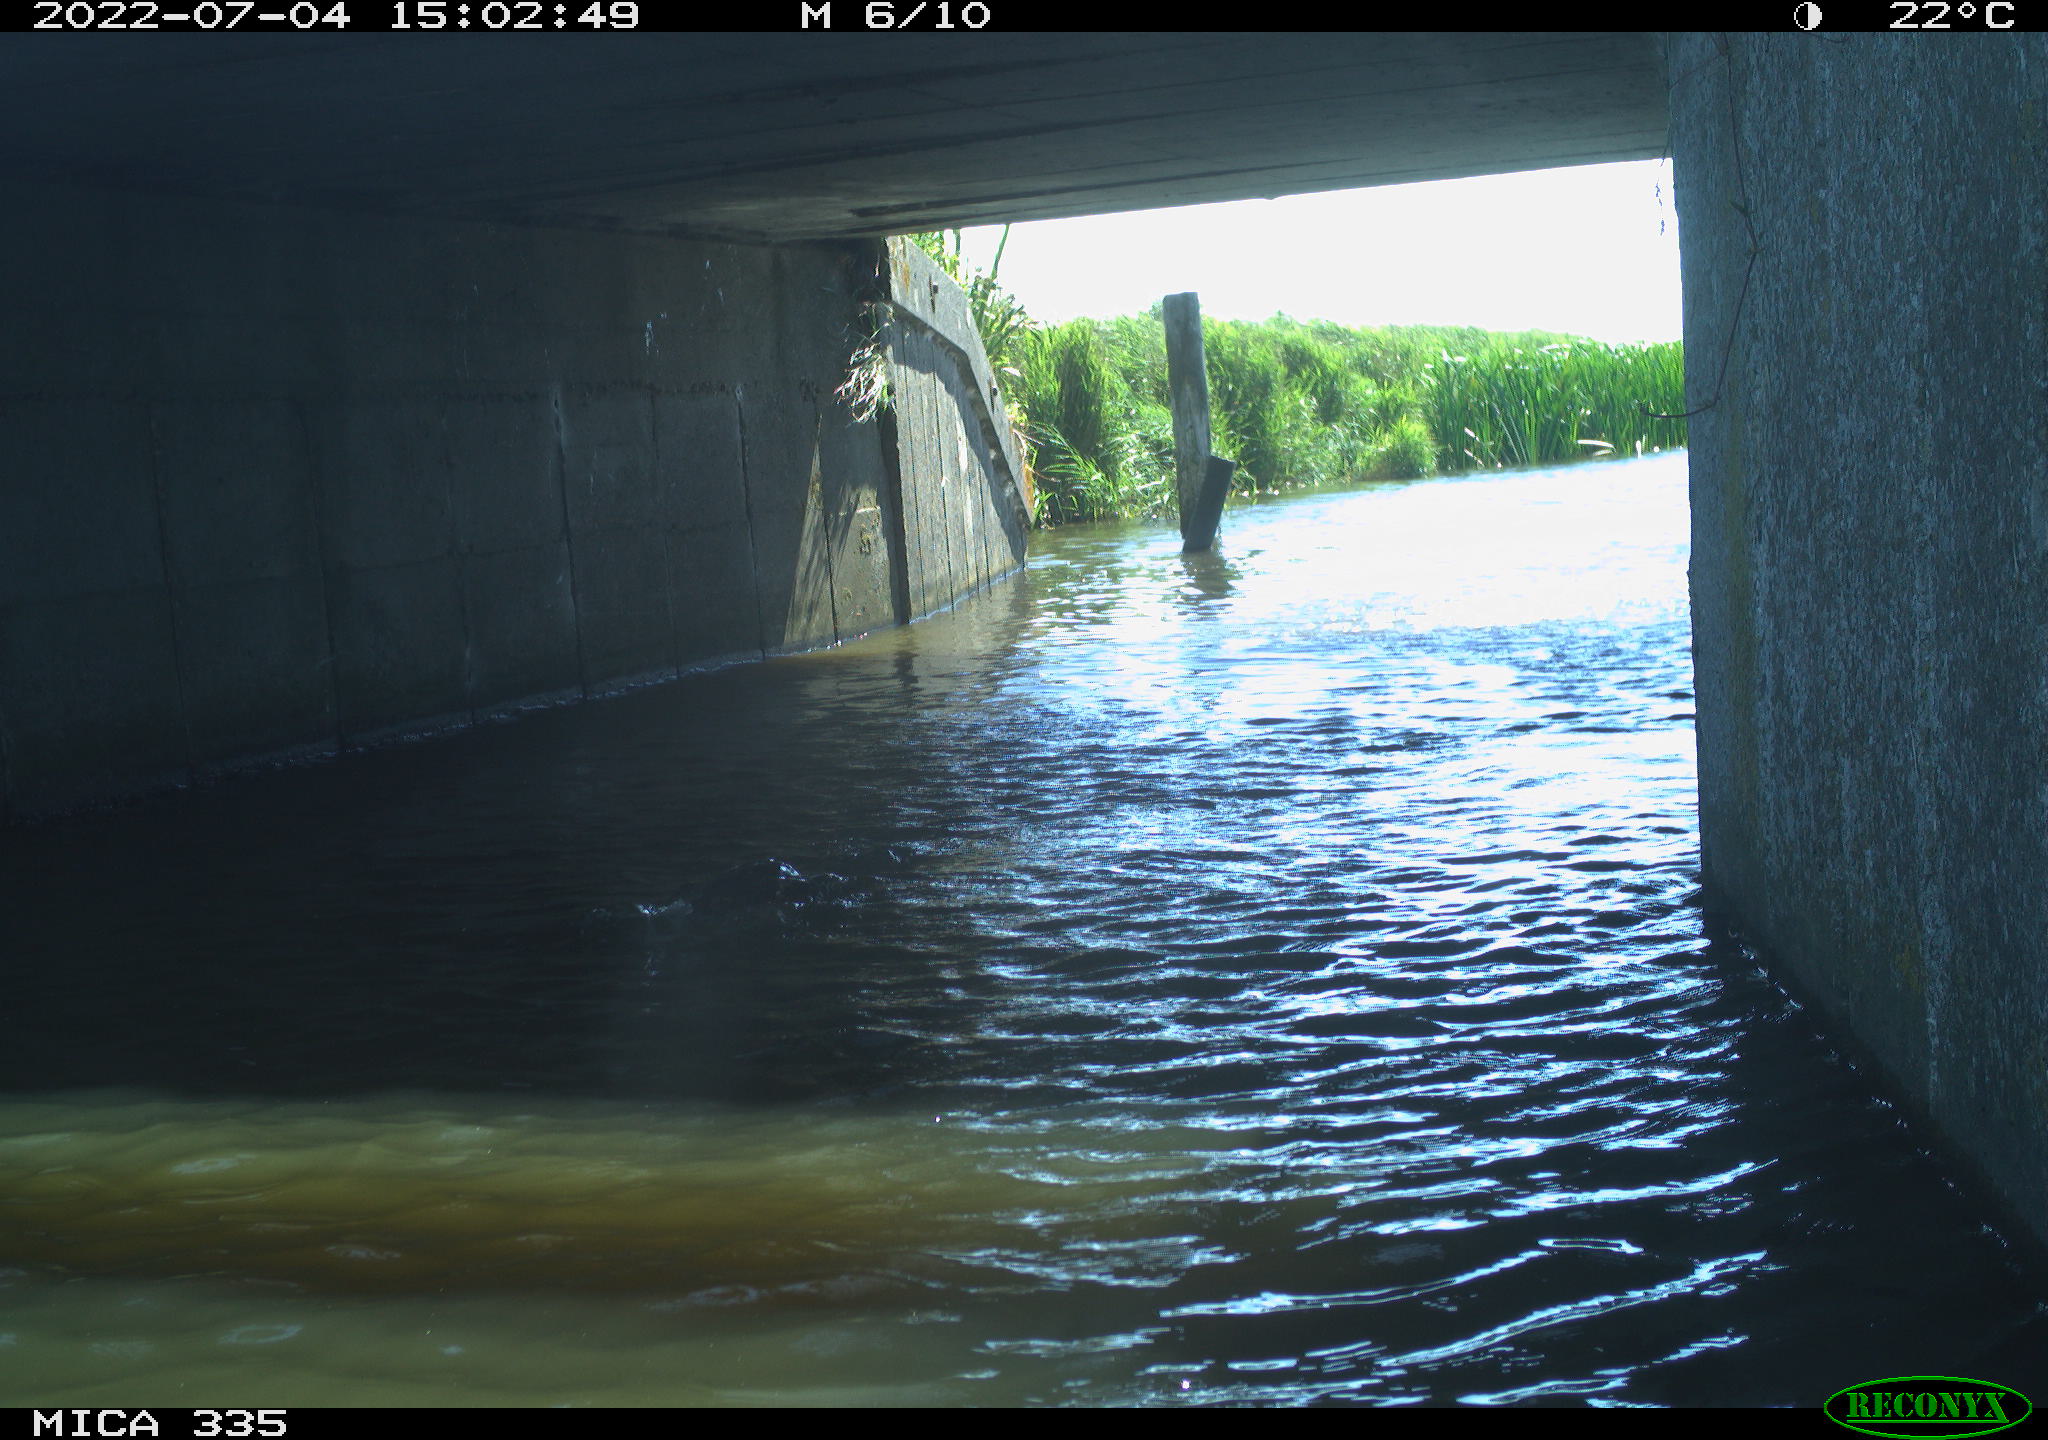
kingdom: Animalia
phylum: Chordata
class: Aves
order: Suliformes
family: Phalacrocoracidae
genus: Phalacrocorax
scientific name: Phalacrocorax carbo
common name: Great cormorant
